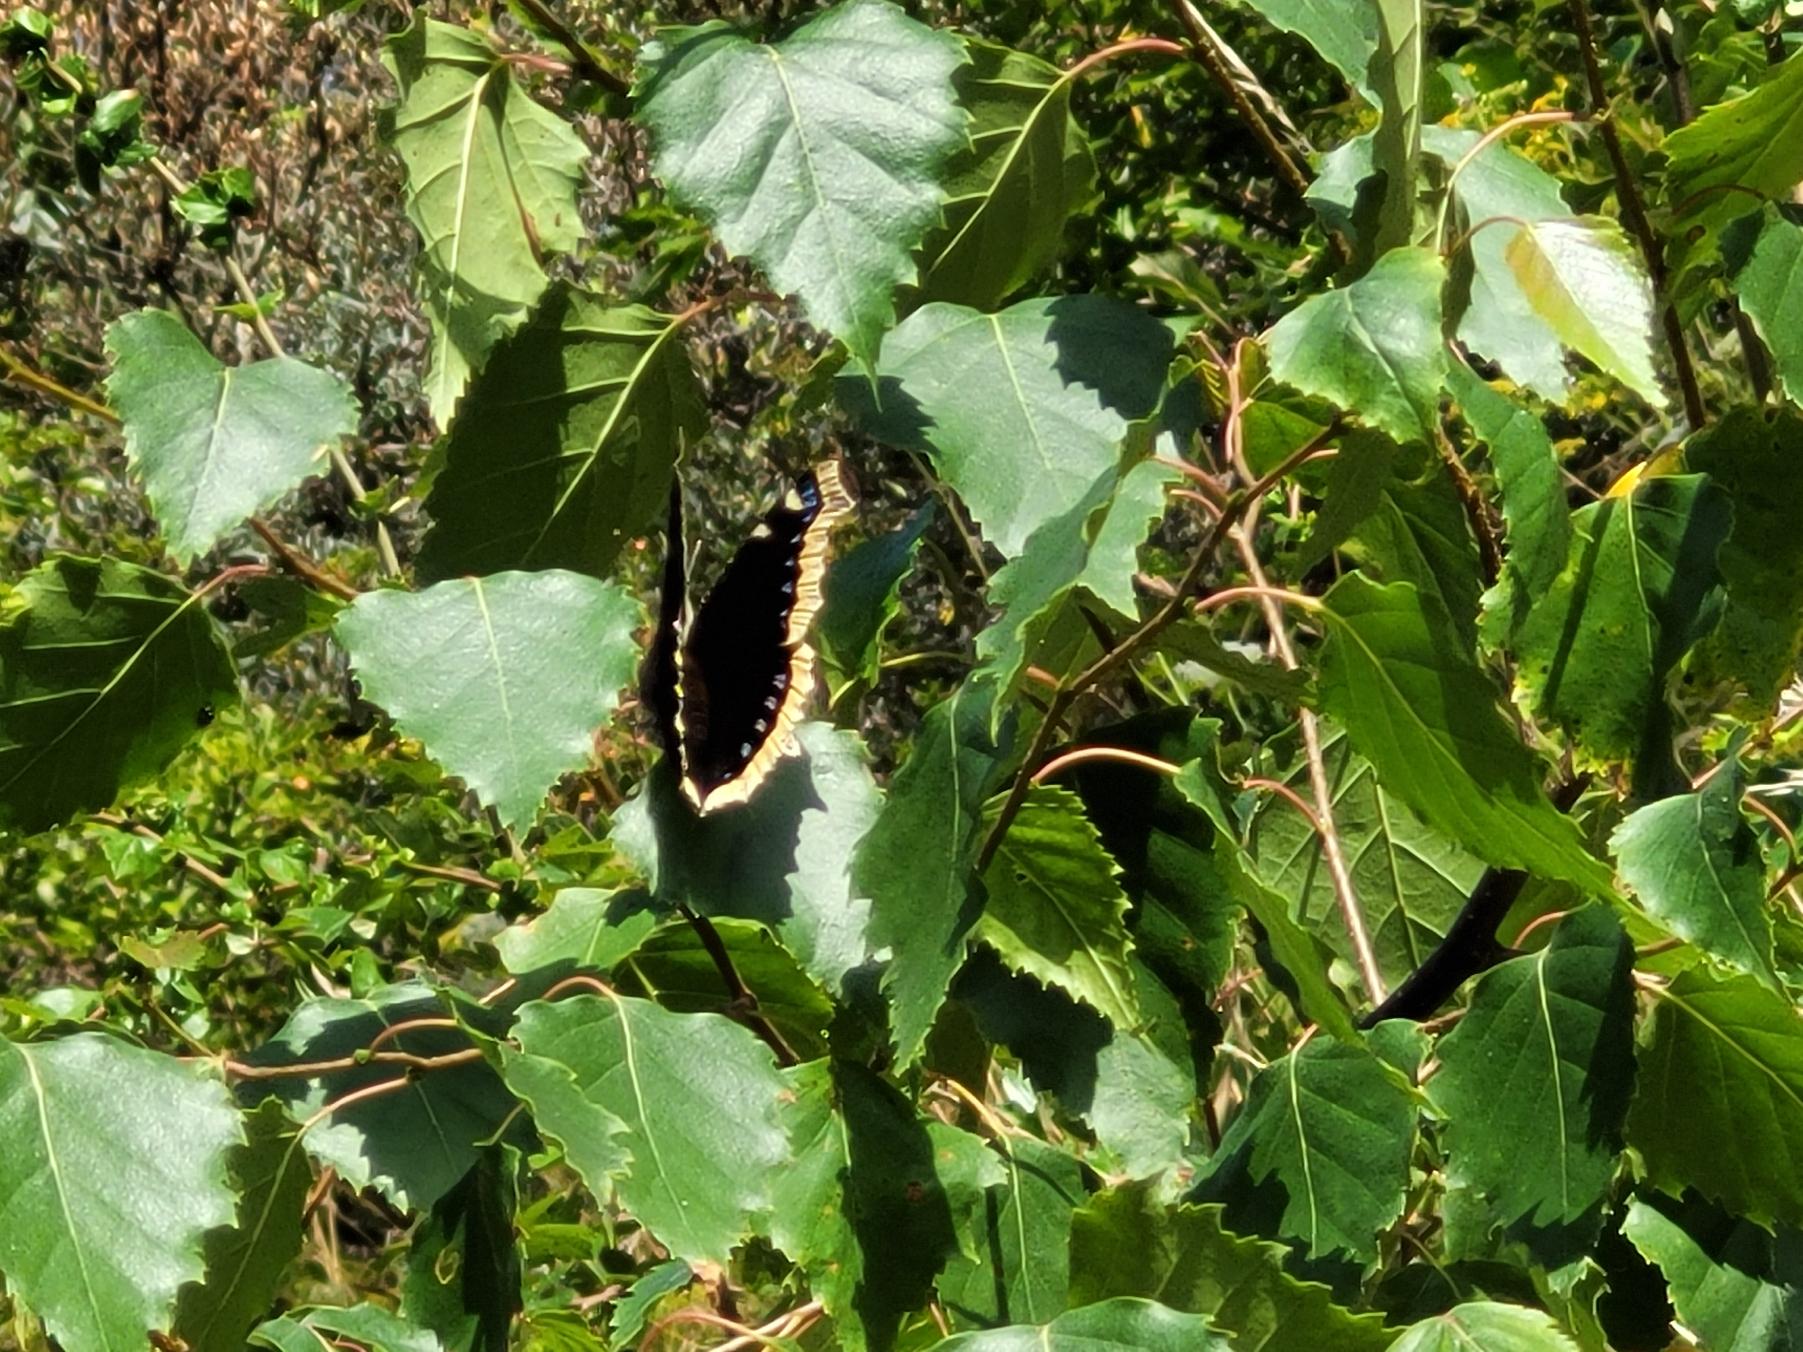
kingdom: Animalia
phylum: Arthropoda
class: Insecta
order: Lepidoptera
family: Nymphalidae
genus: Nymphalis
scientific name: Nymphalis antiopa
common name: Sørgekåbe
